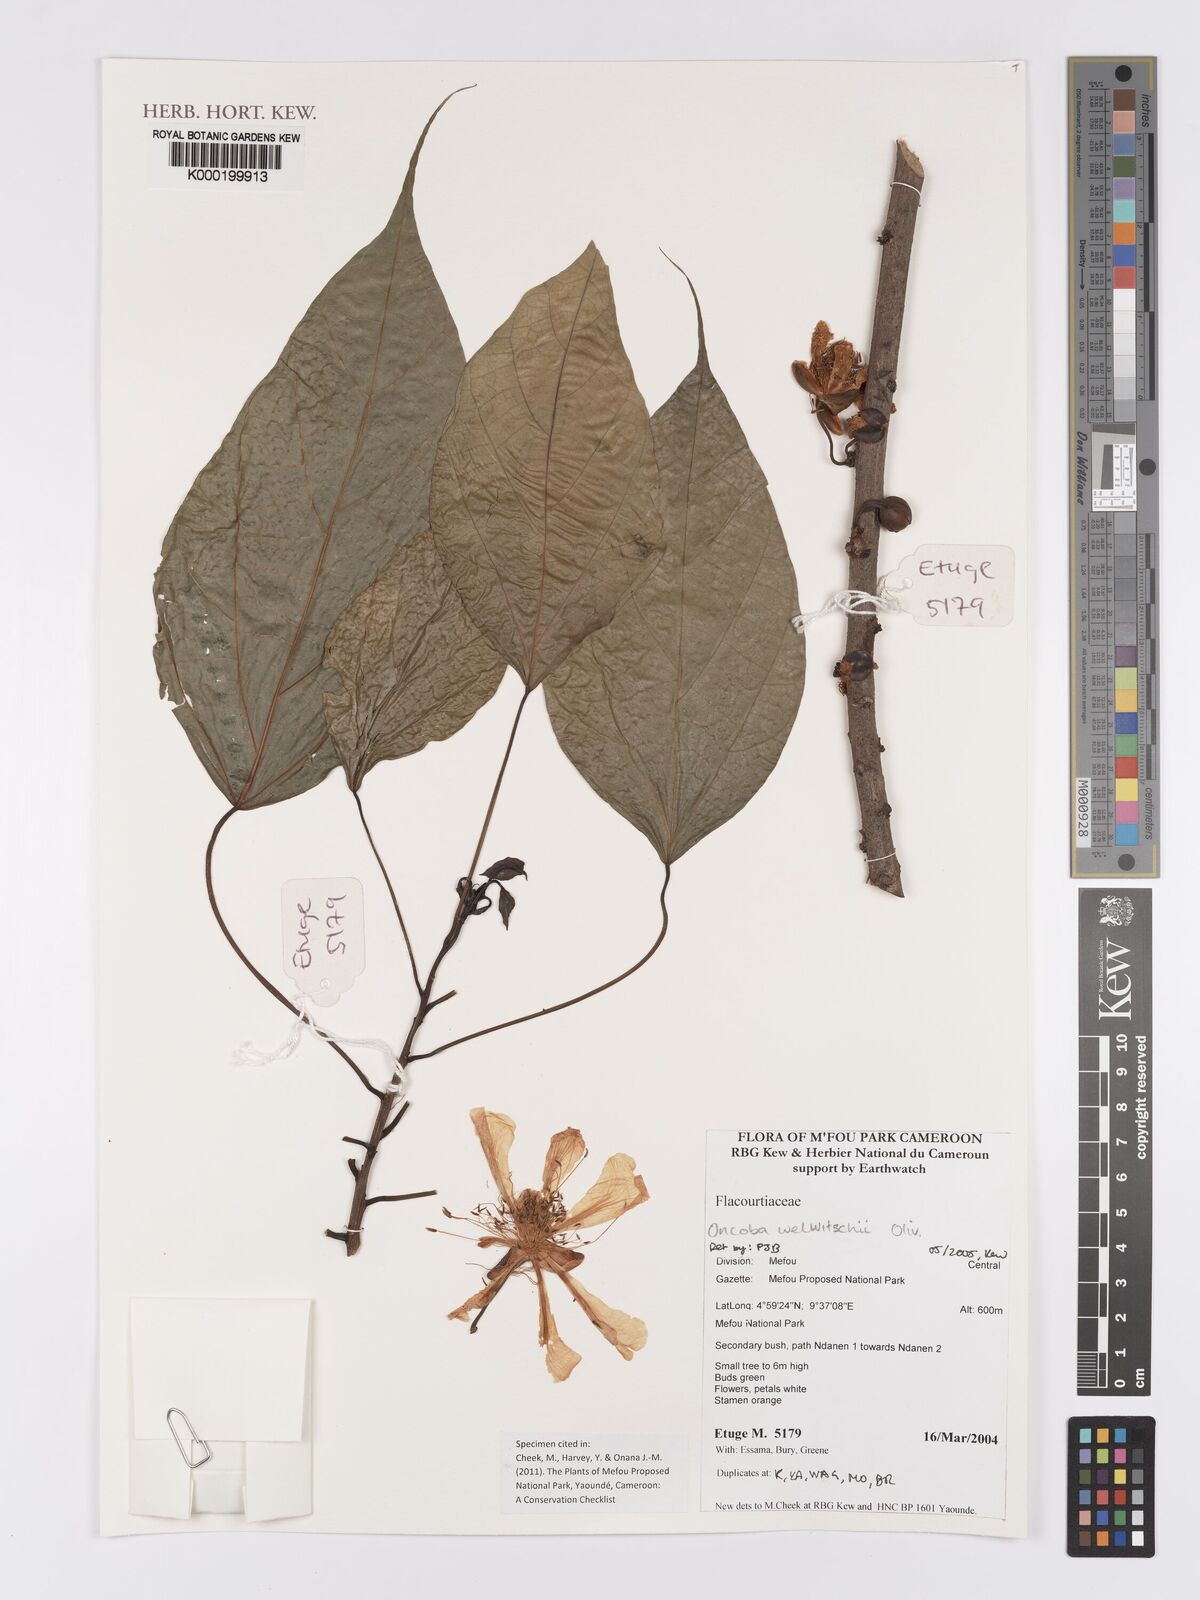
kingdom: Plantae
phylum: Tracheophyta
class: Magnoliopsida
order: Malpighiales
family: Achariaceae
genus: Caloncoba
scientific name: Caloncoba welwitschii
